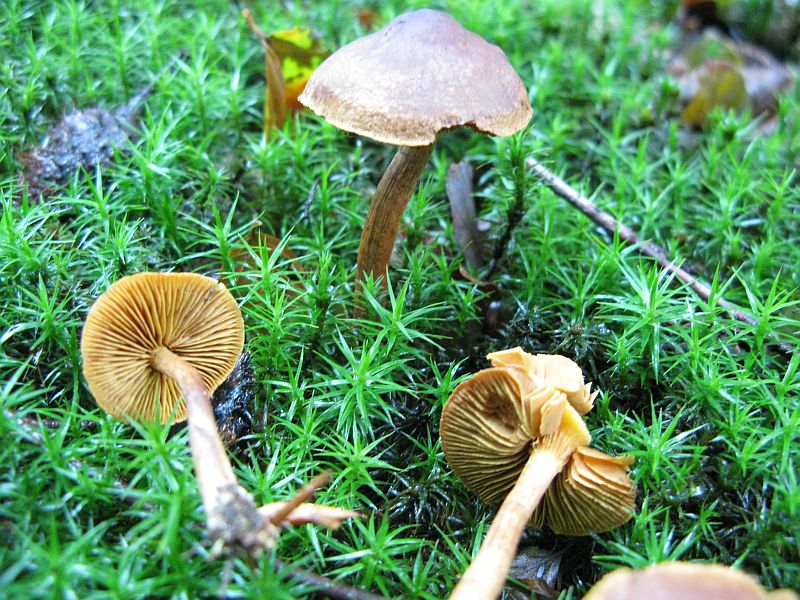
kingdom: Fungi
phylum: Basidiomycota
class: Agaricomycetes
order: Agaricales
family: Cortinariaceae
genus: Cortinarius
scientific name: Cortinarius
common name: gulbladet slørhat
